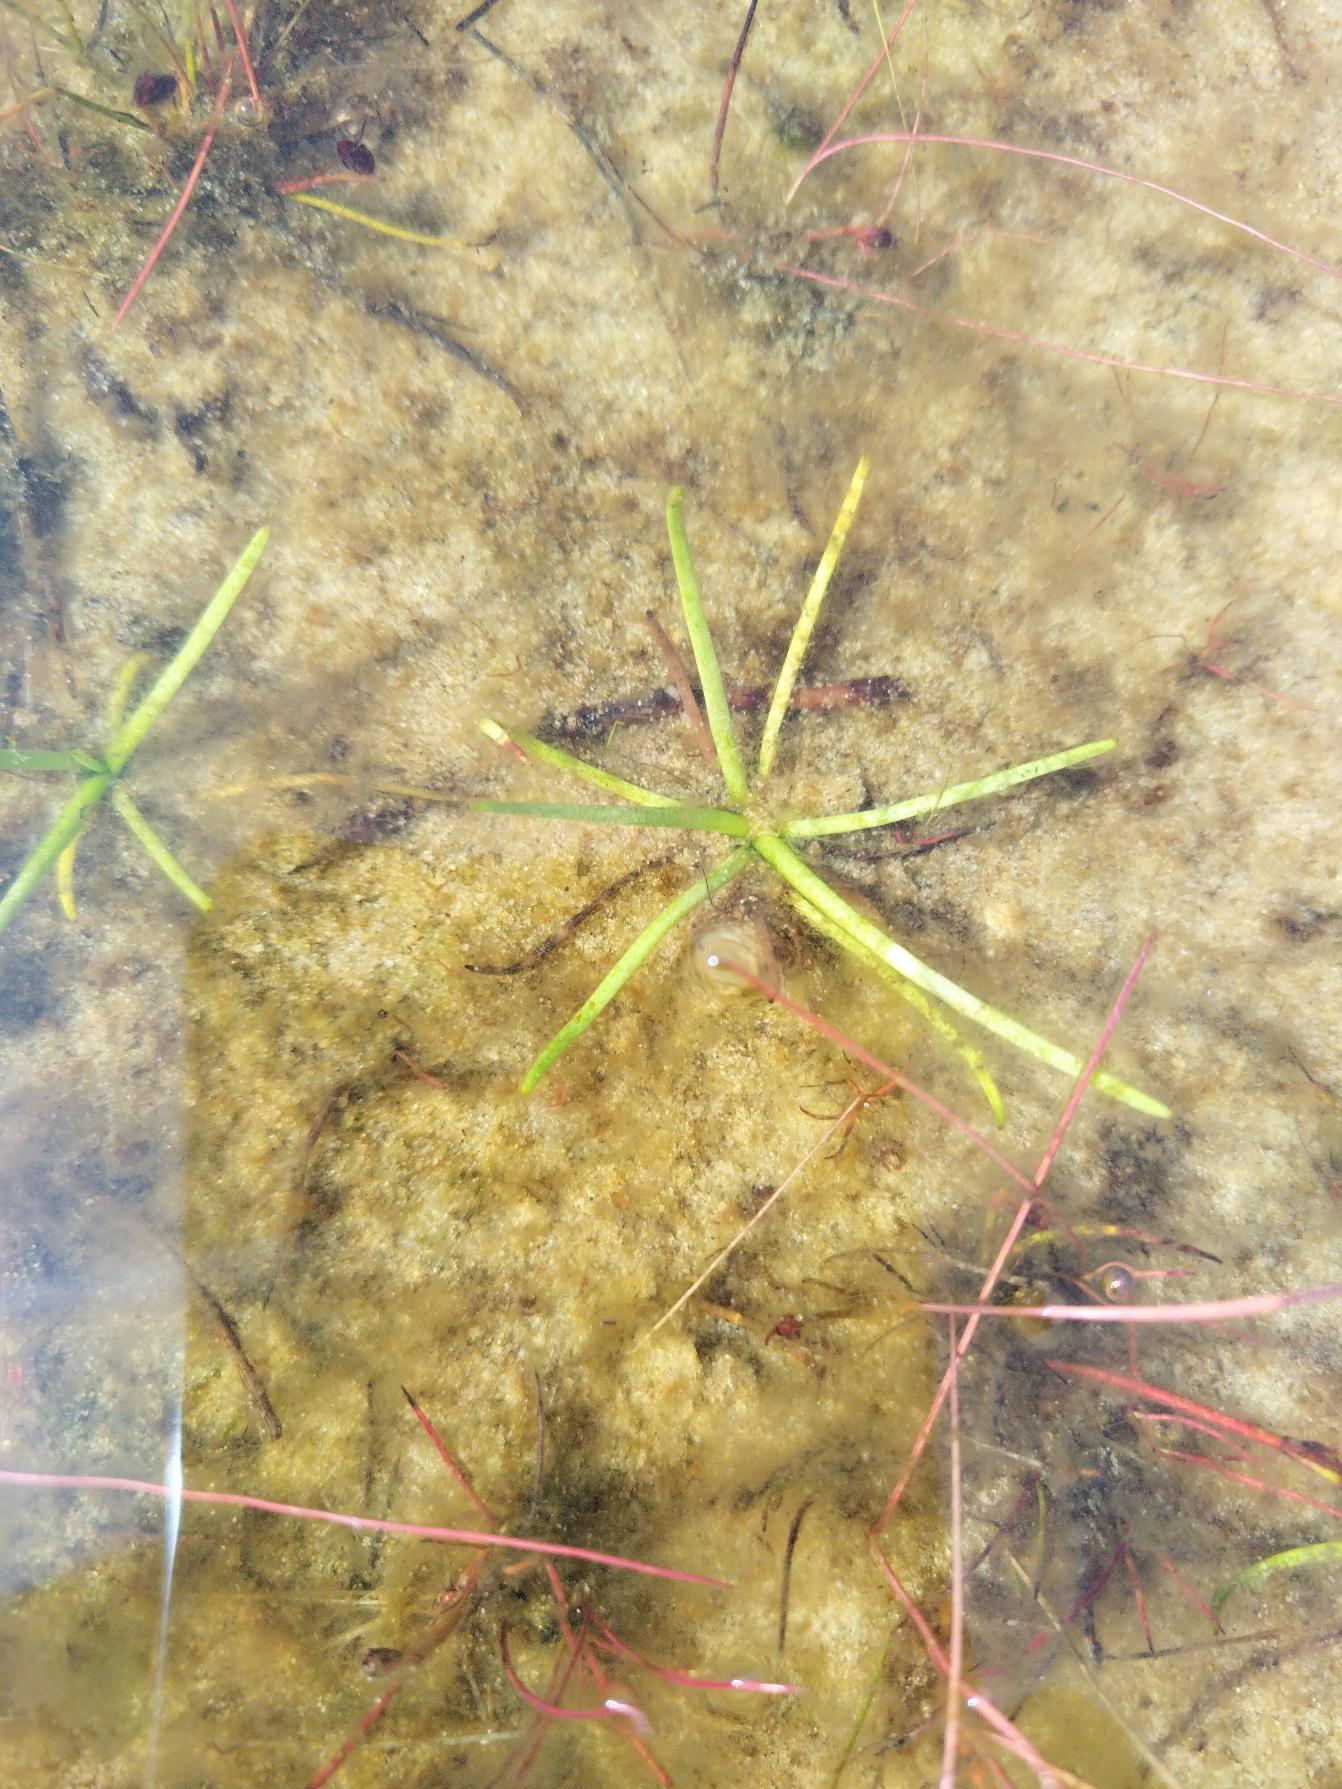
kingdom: Plantae
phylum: Tracheophyta
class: Magnoliopsida
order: Lamiales
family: Plantaginaceae
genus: Littorella
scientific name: Littorella uniflora
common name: Strandbo
